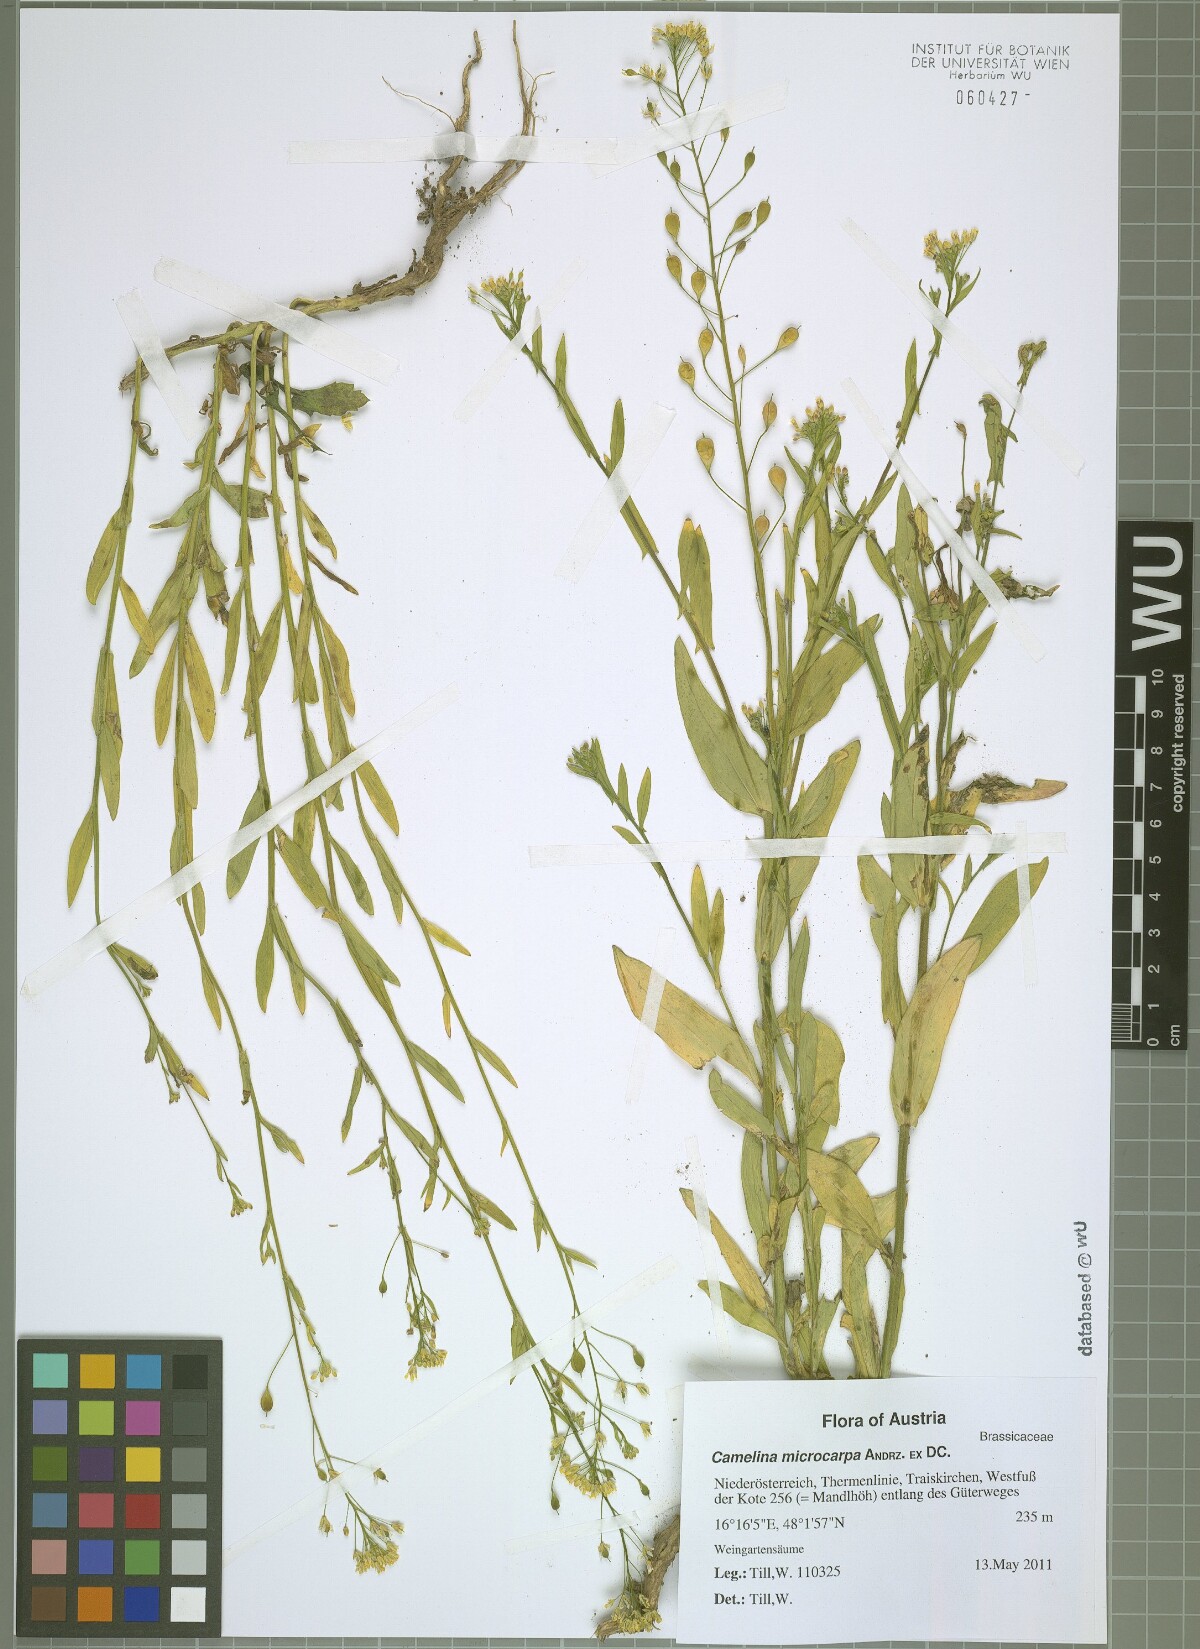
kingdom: Plantae
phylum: Tracheophyta
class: Magnoliopsida
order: Brassicales
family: Brassicaceae
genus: Camelina
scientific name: Camelina microcarpa
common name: Lesser gold-of-pleasure
